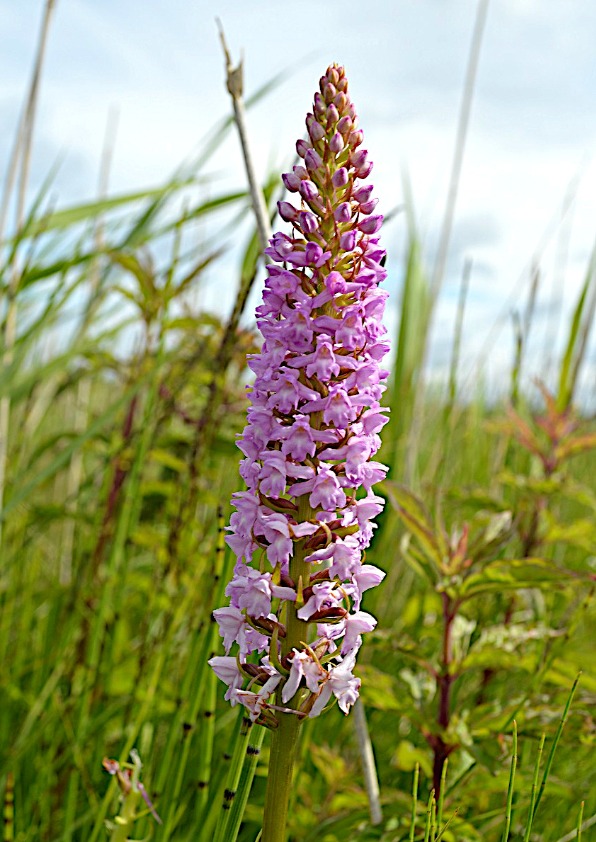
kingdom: Plantae
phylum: Tracheophyta
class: Liliopsida
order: Asparagales
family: Orchidaceae
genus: Gymnadenia
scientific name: Gymnadenia densiflora
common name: Tætblomstret trådspore
